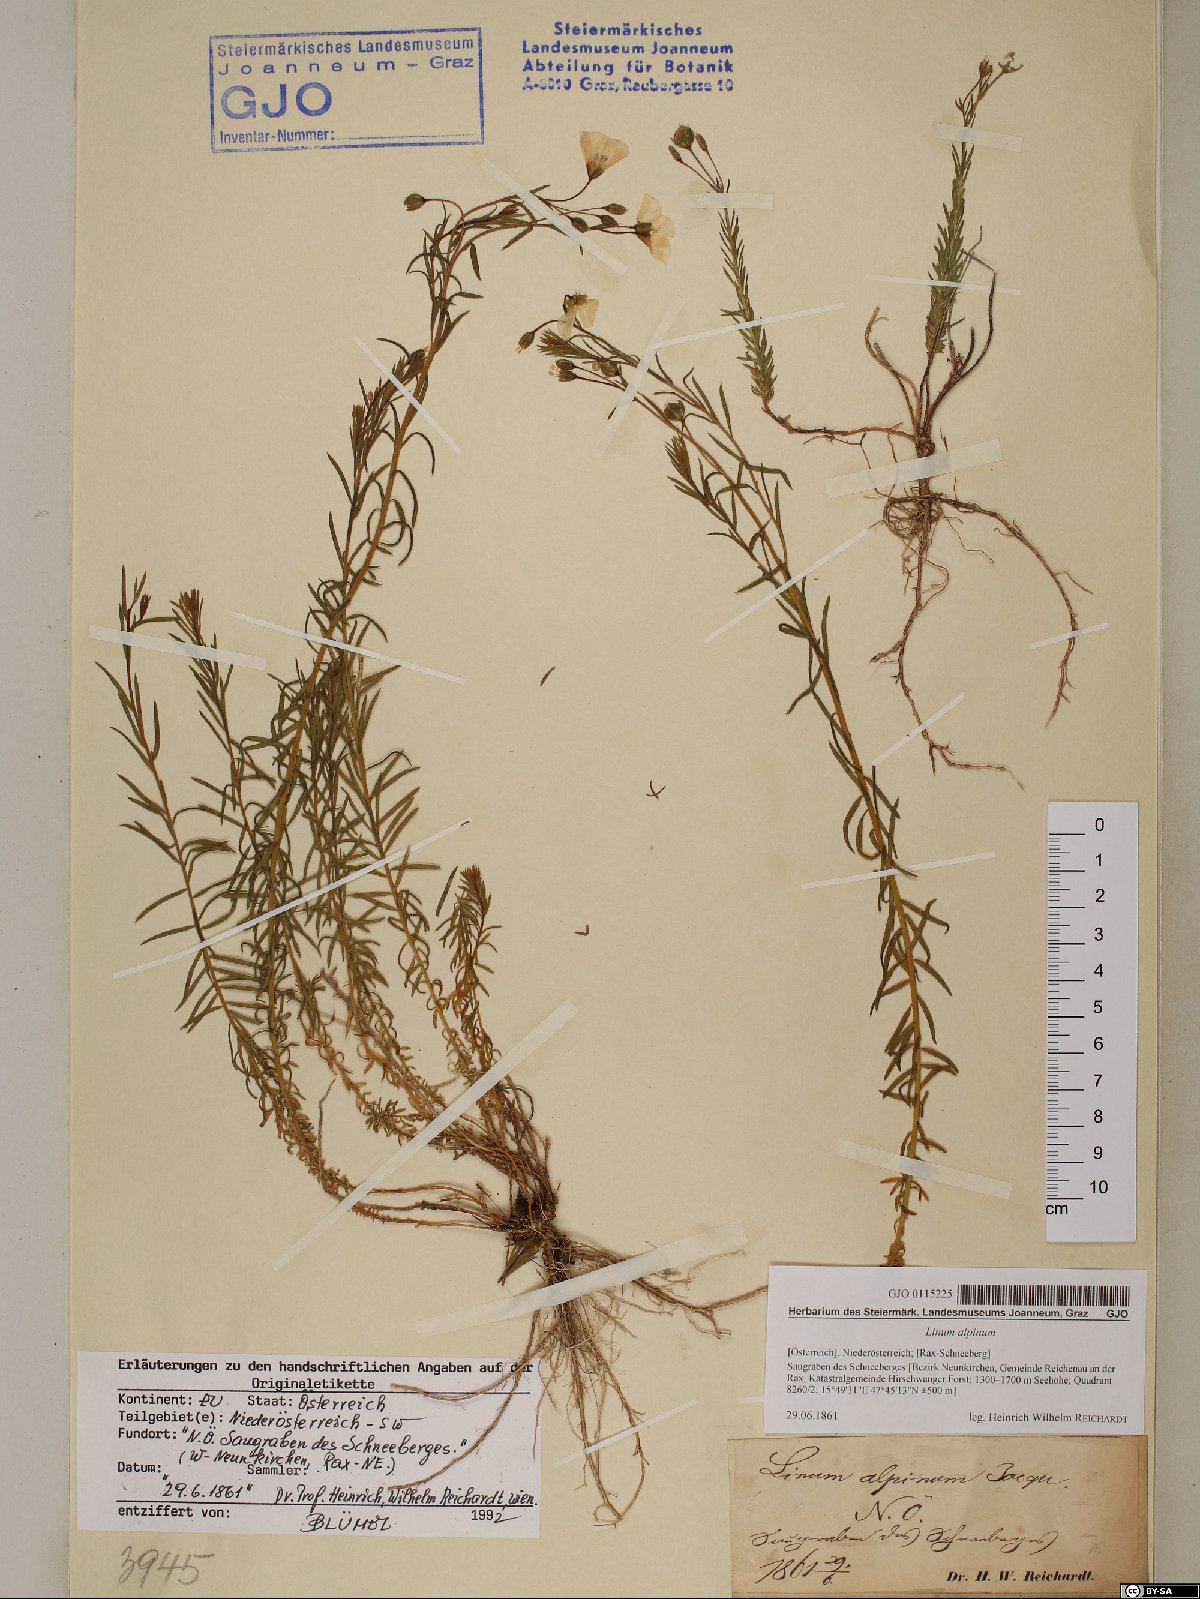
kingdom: Plantae
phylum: Tracheophyta
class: Magnoliopsida
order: Malpighiales
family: Linaceae
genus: Linum
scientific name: Linum alpinum
